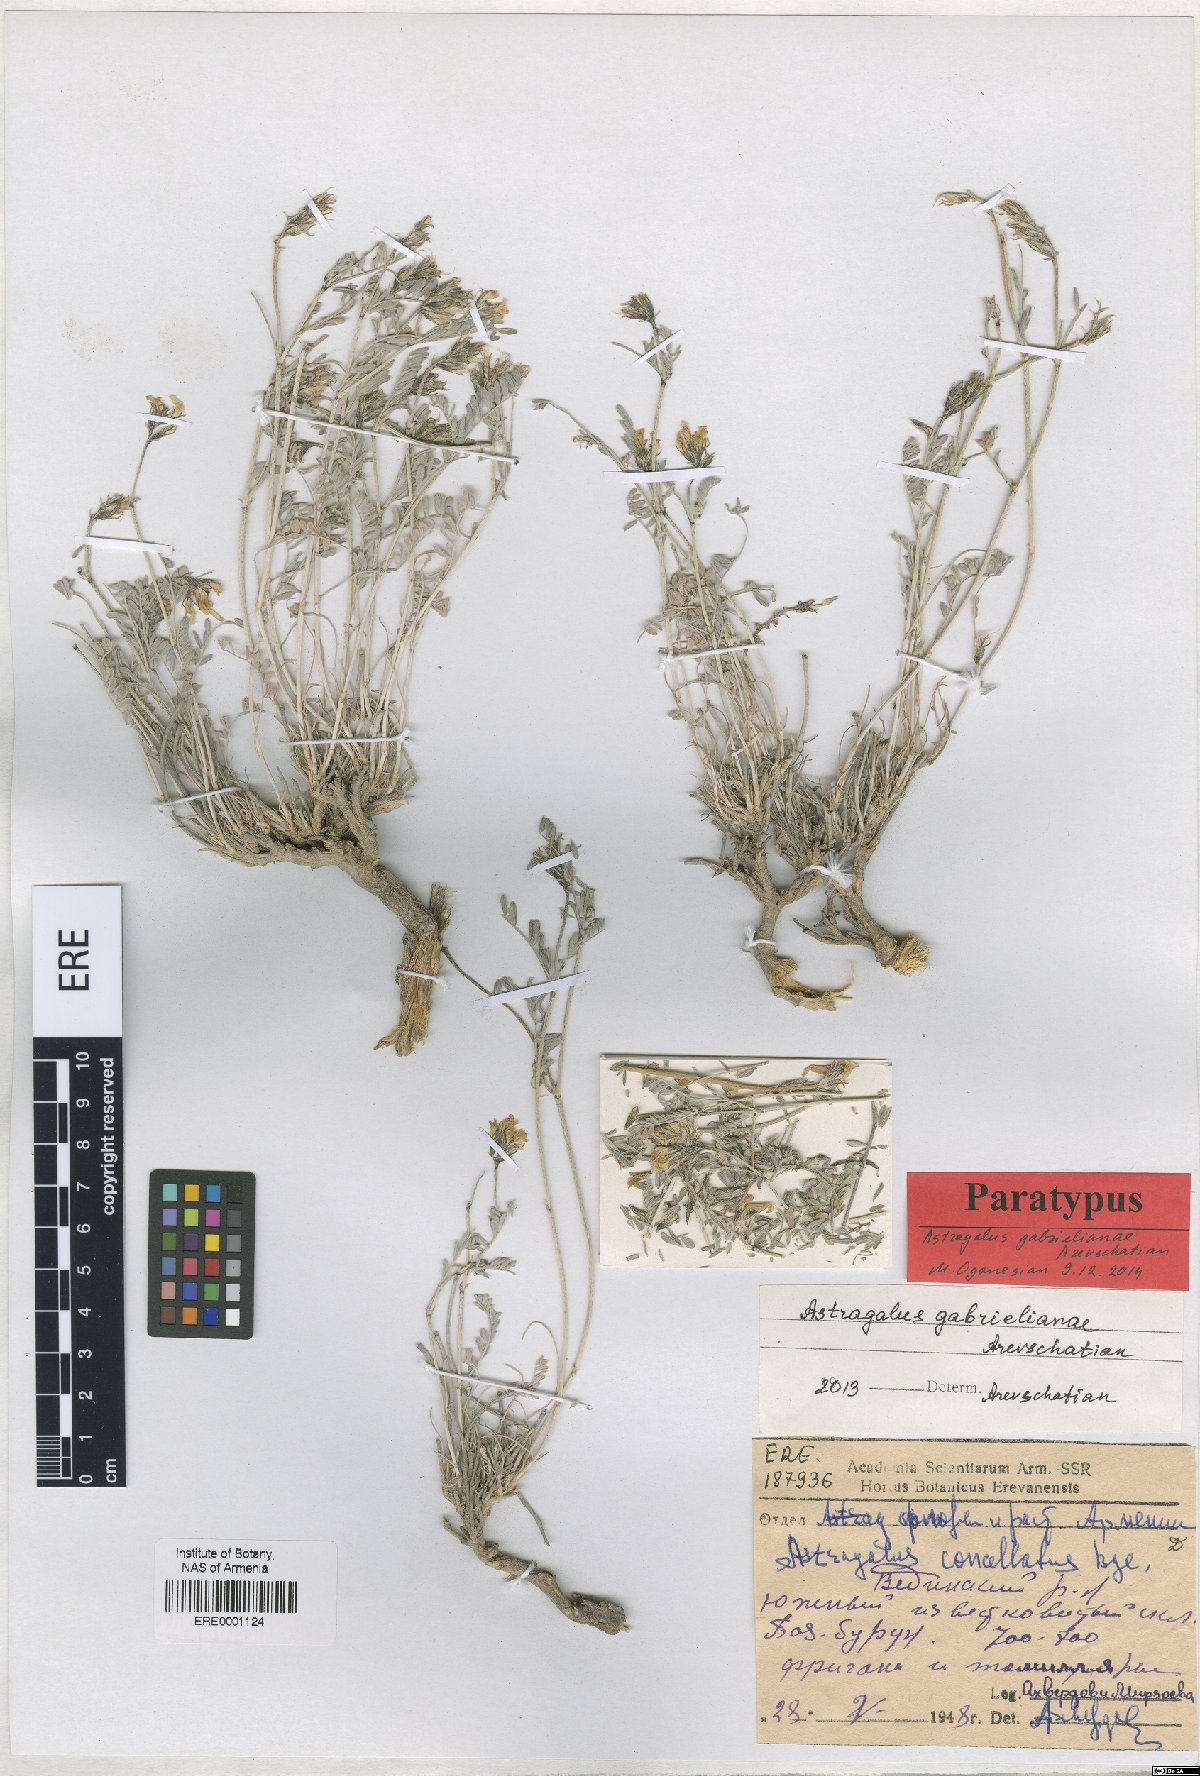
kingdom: Plantae
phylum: Tracheophyta
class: Magnoliopsida
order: Fabales
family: Fabaceae
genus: Astragalus
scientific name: Astragalus gabrelianae
